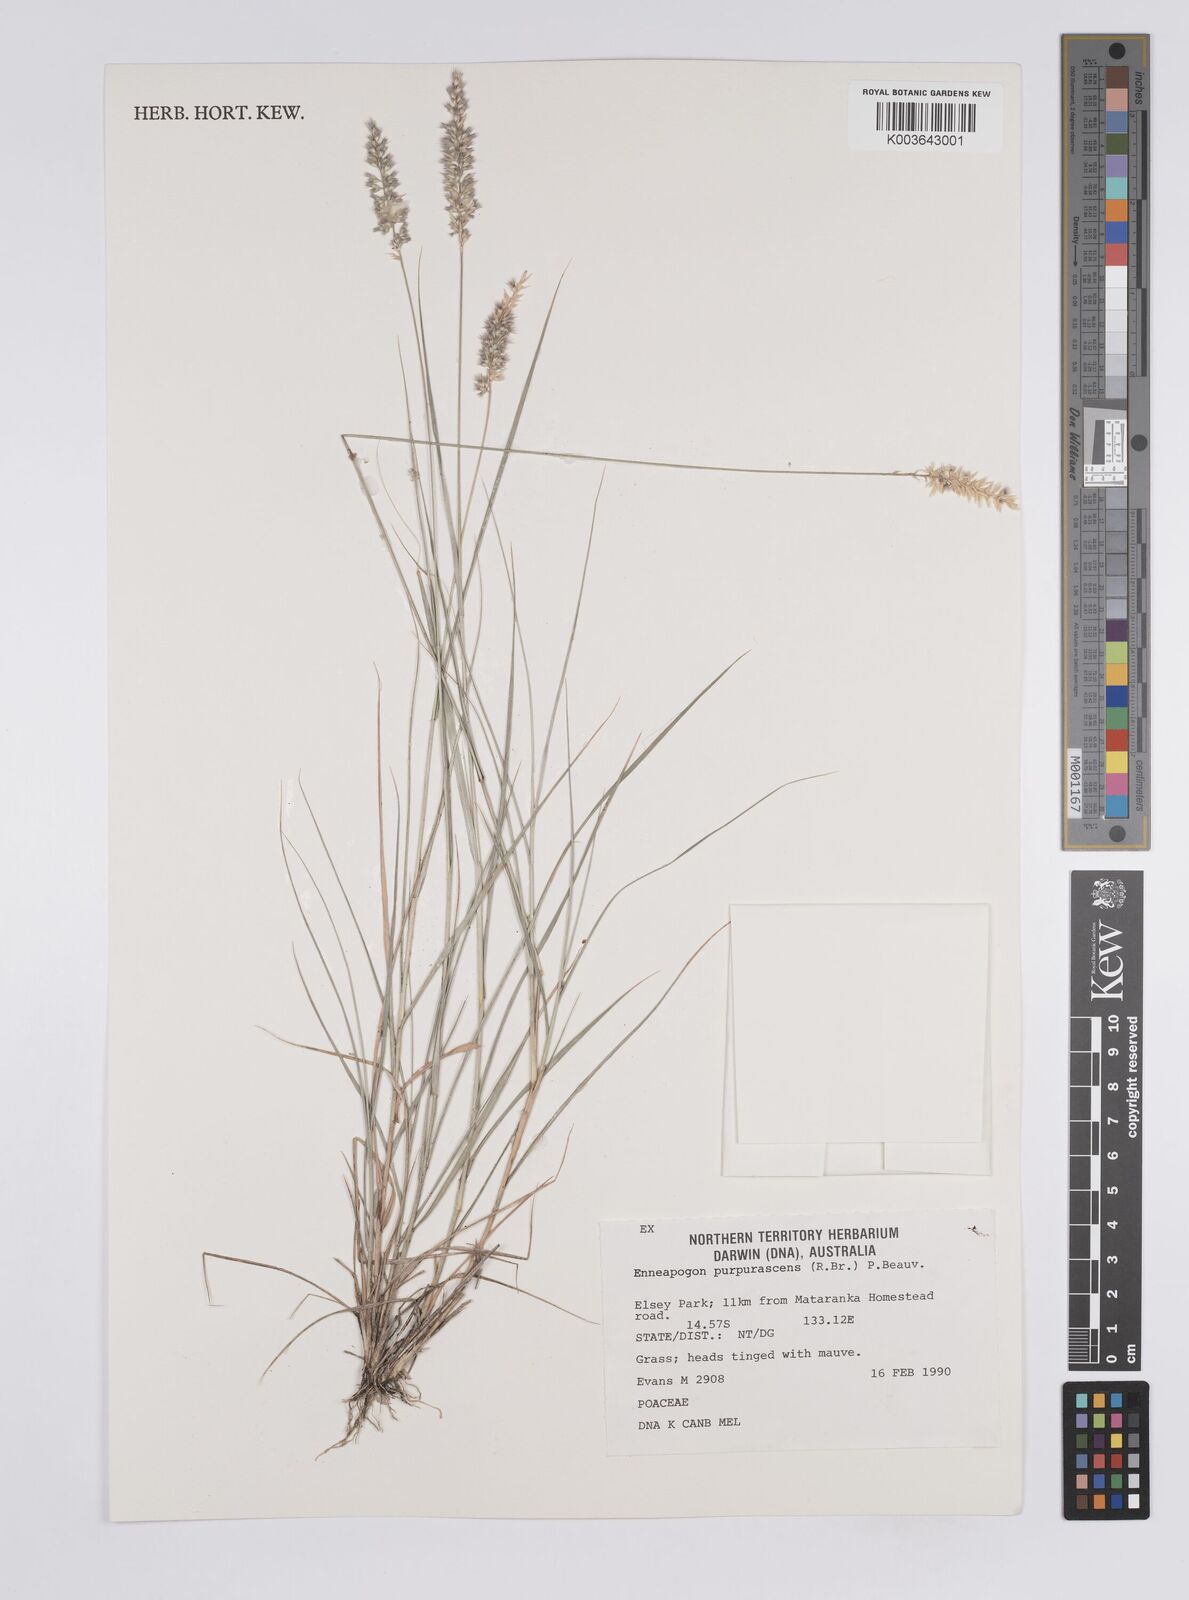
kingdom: Plantae
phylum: Tracheophyta
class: Liliopsida
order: Poales
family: Poaceae
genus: Enneapogon
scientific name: Enneapogon purpurascens
